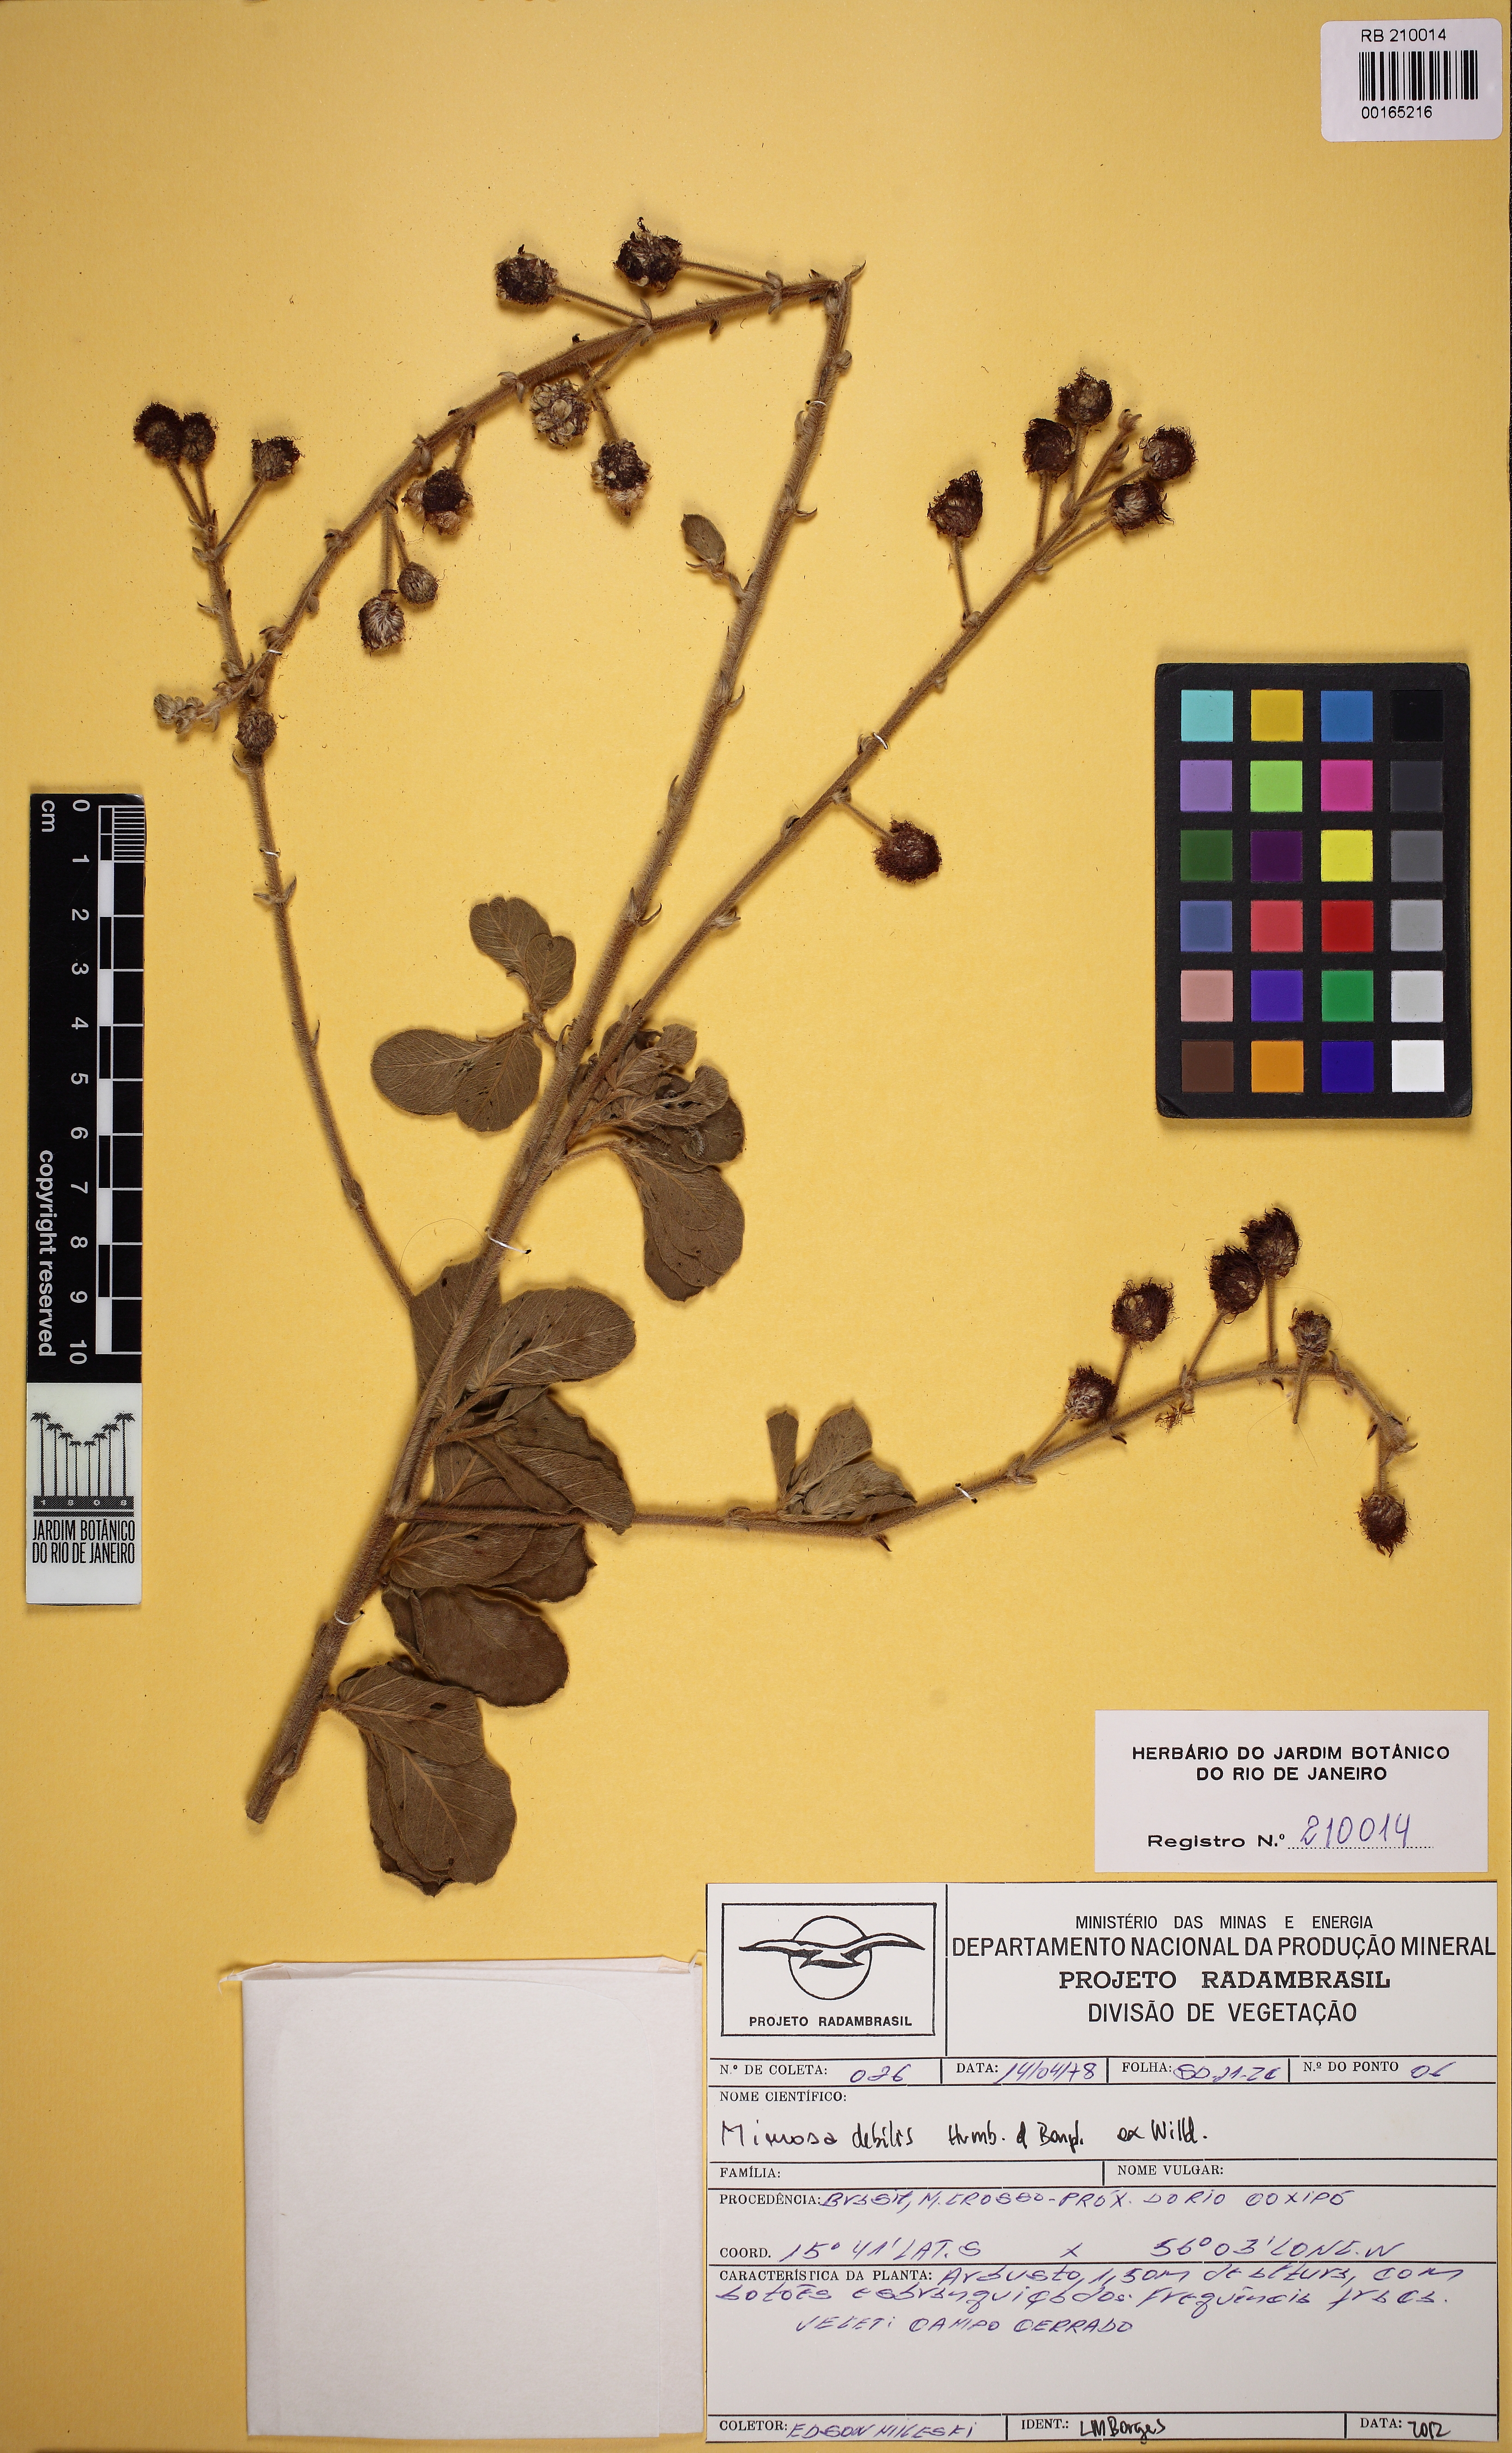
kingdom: Plantae
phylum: Tracheophyta
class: Magnoliopsida
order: Fabales
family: Fabaceae
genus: Mimosa
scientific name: Mimosa debilis
